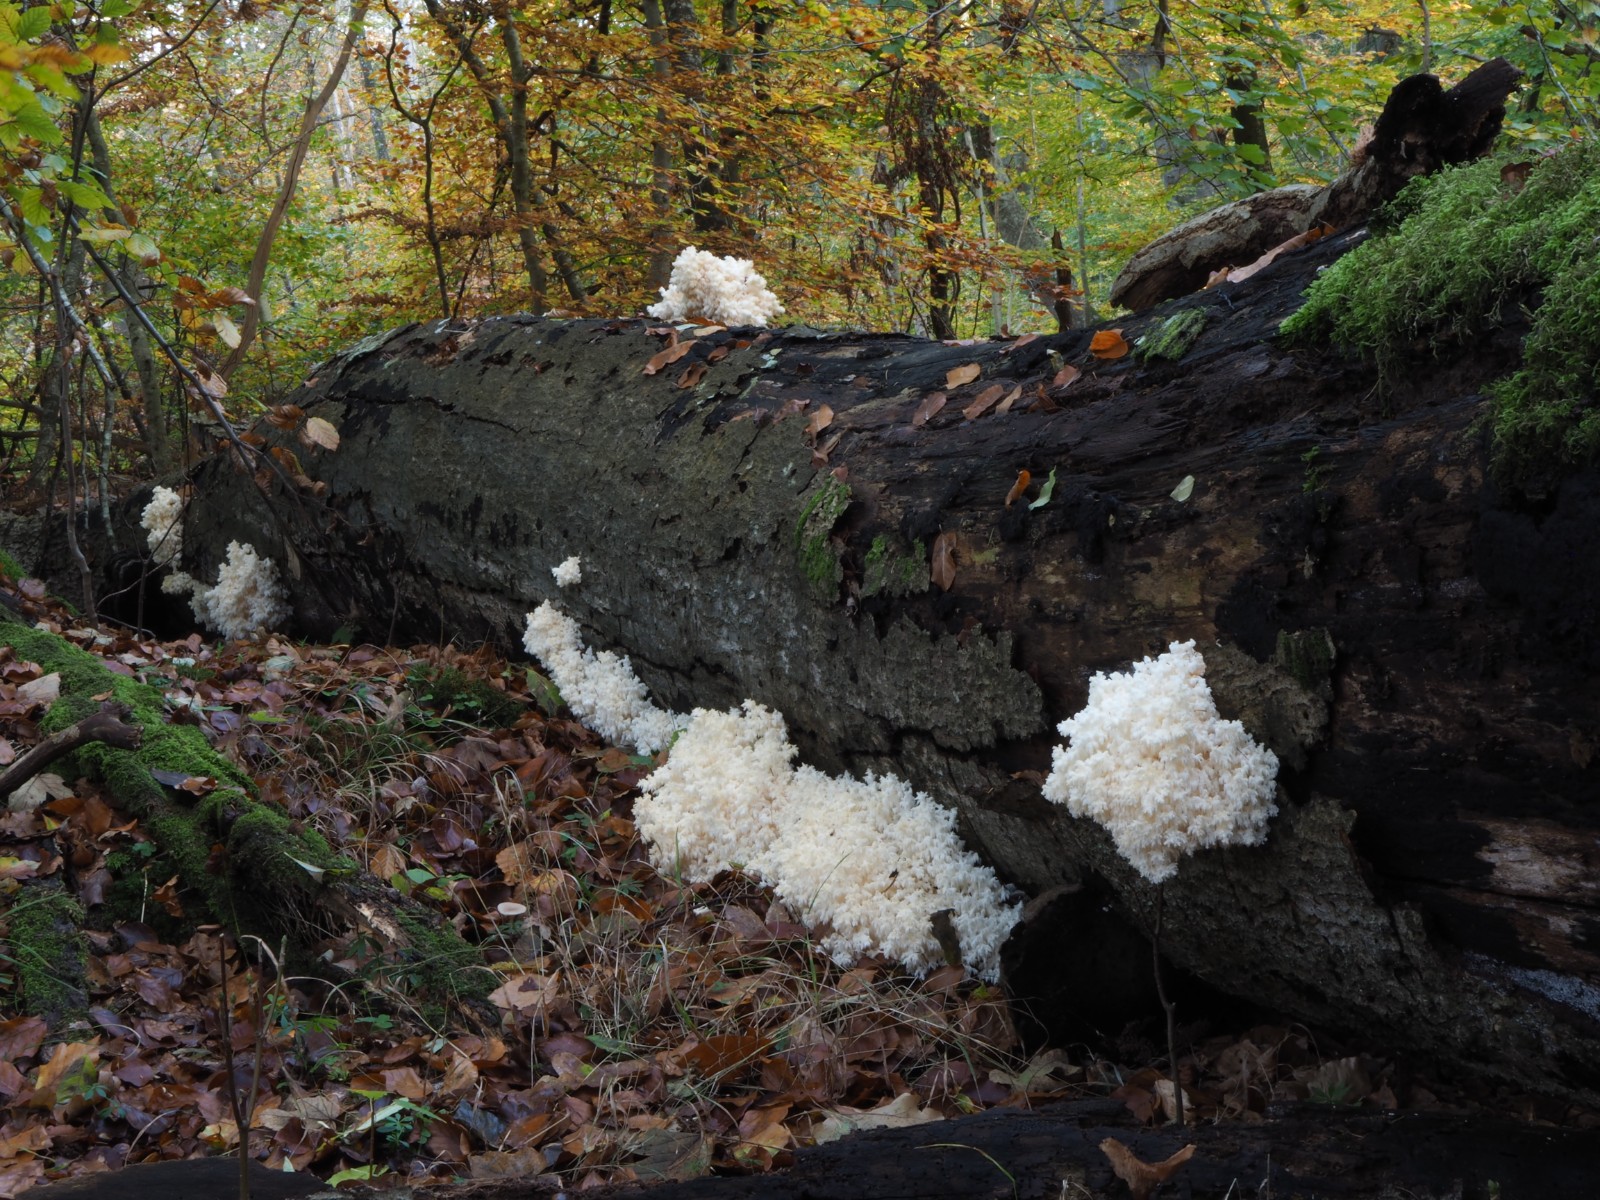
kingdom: Fungi
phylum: Basidiomycota
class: Agaricomycetes
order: Russulales
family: Hericiaceae
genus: Hericium
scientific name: Hericium coralloides
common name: koralpigsvamp
